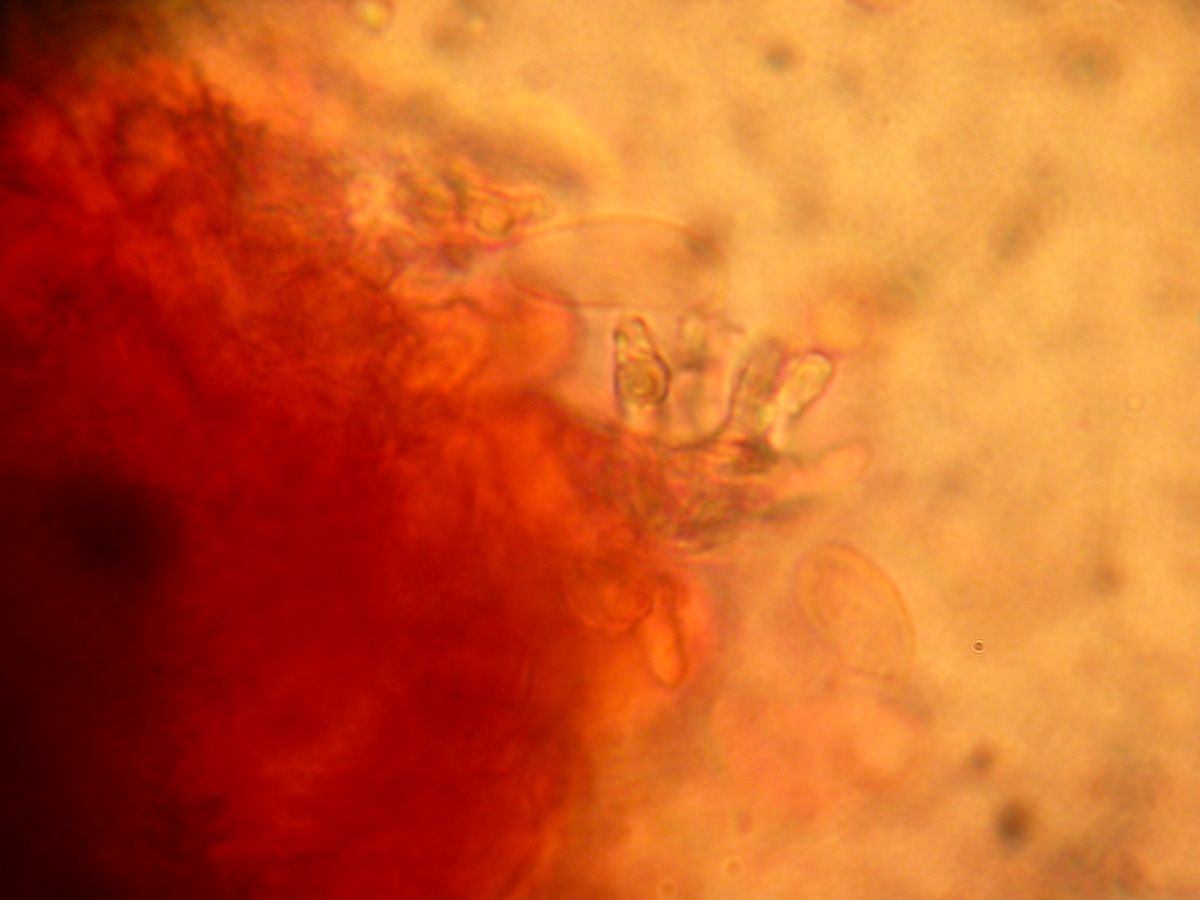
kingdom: Fungi
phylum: Basidiomycota
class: Agaricomycetes
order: Russulales
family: Peniophoraceae
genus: Peniophora
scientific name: Peniophora lycii
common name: grynet voksskind
